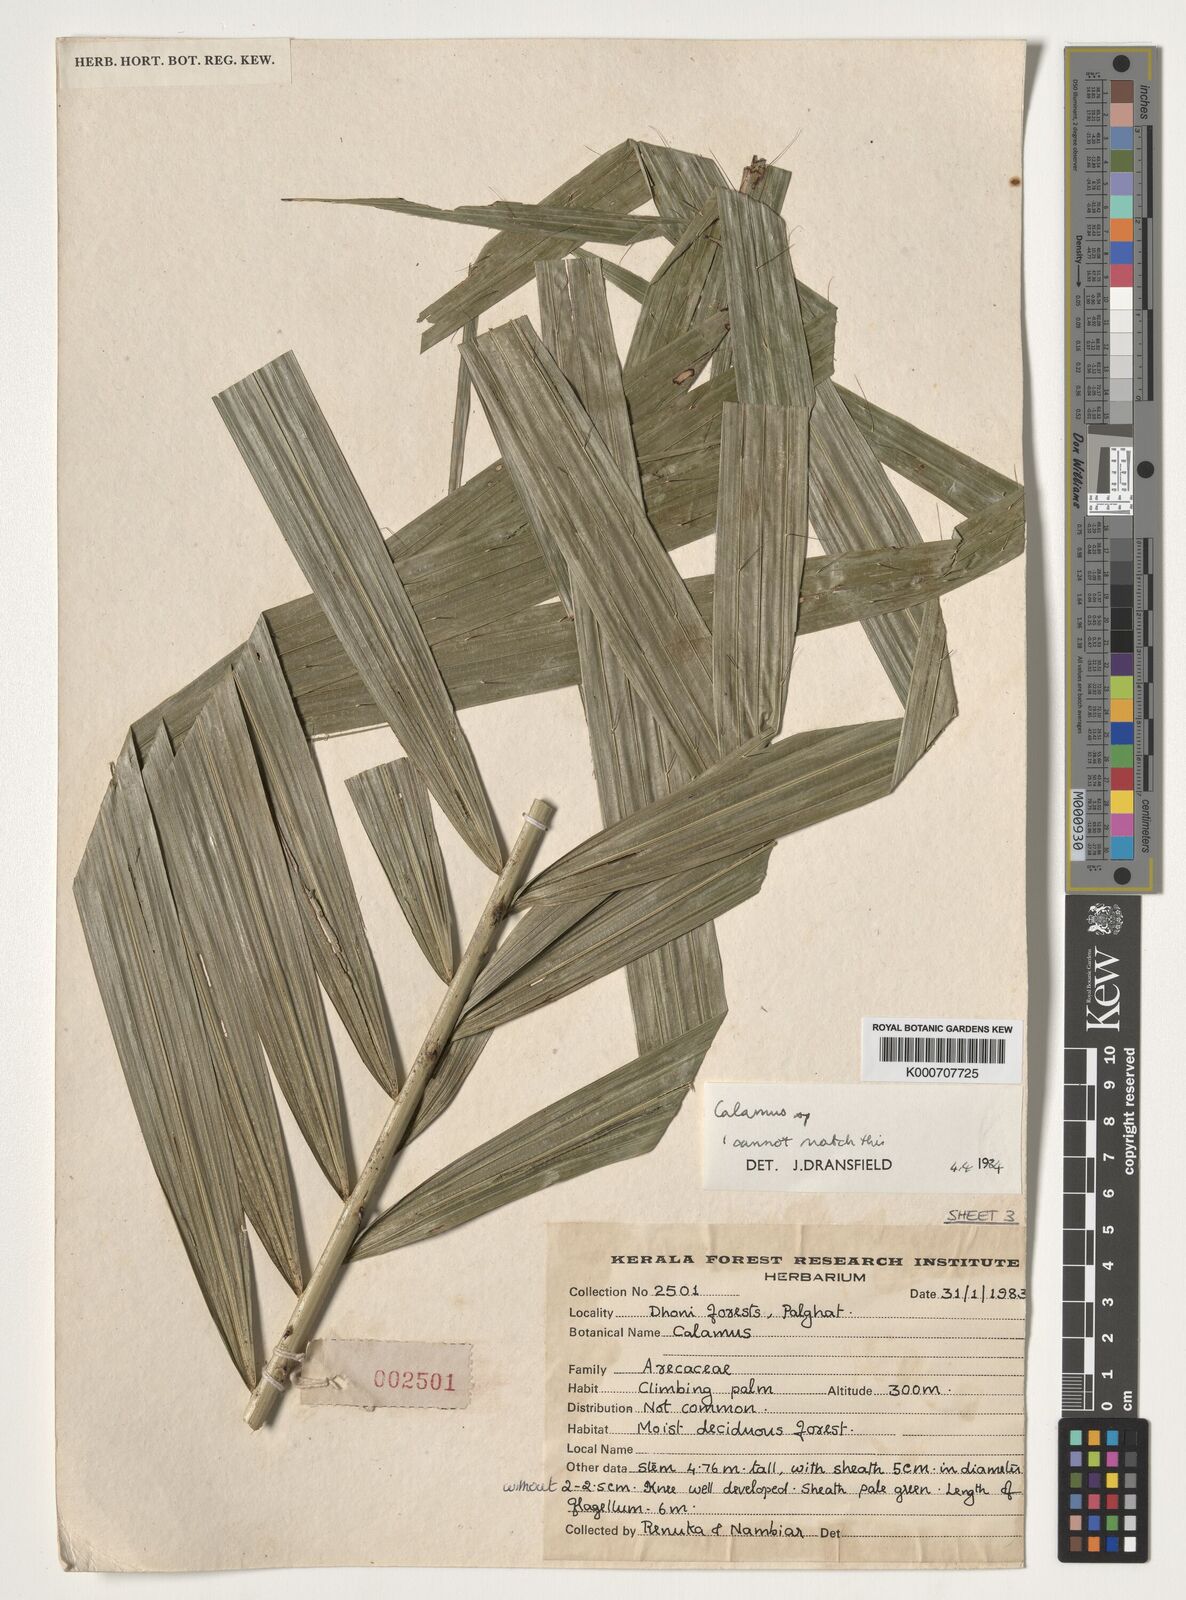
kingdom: Plantae
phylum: Tracheophyta
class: Liliopsida
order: Arecales
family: Arecaceae
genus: Calamus
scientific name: Calamus
